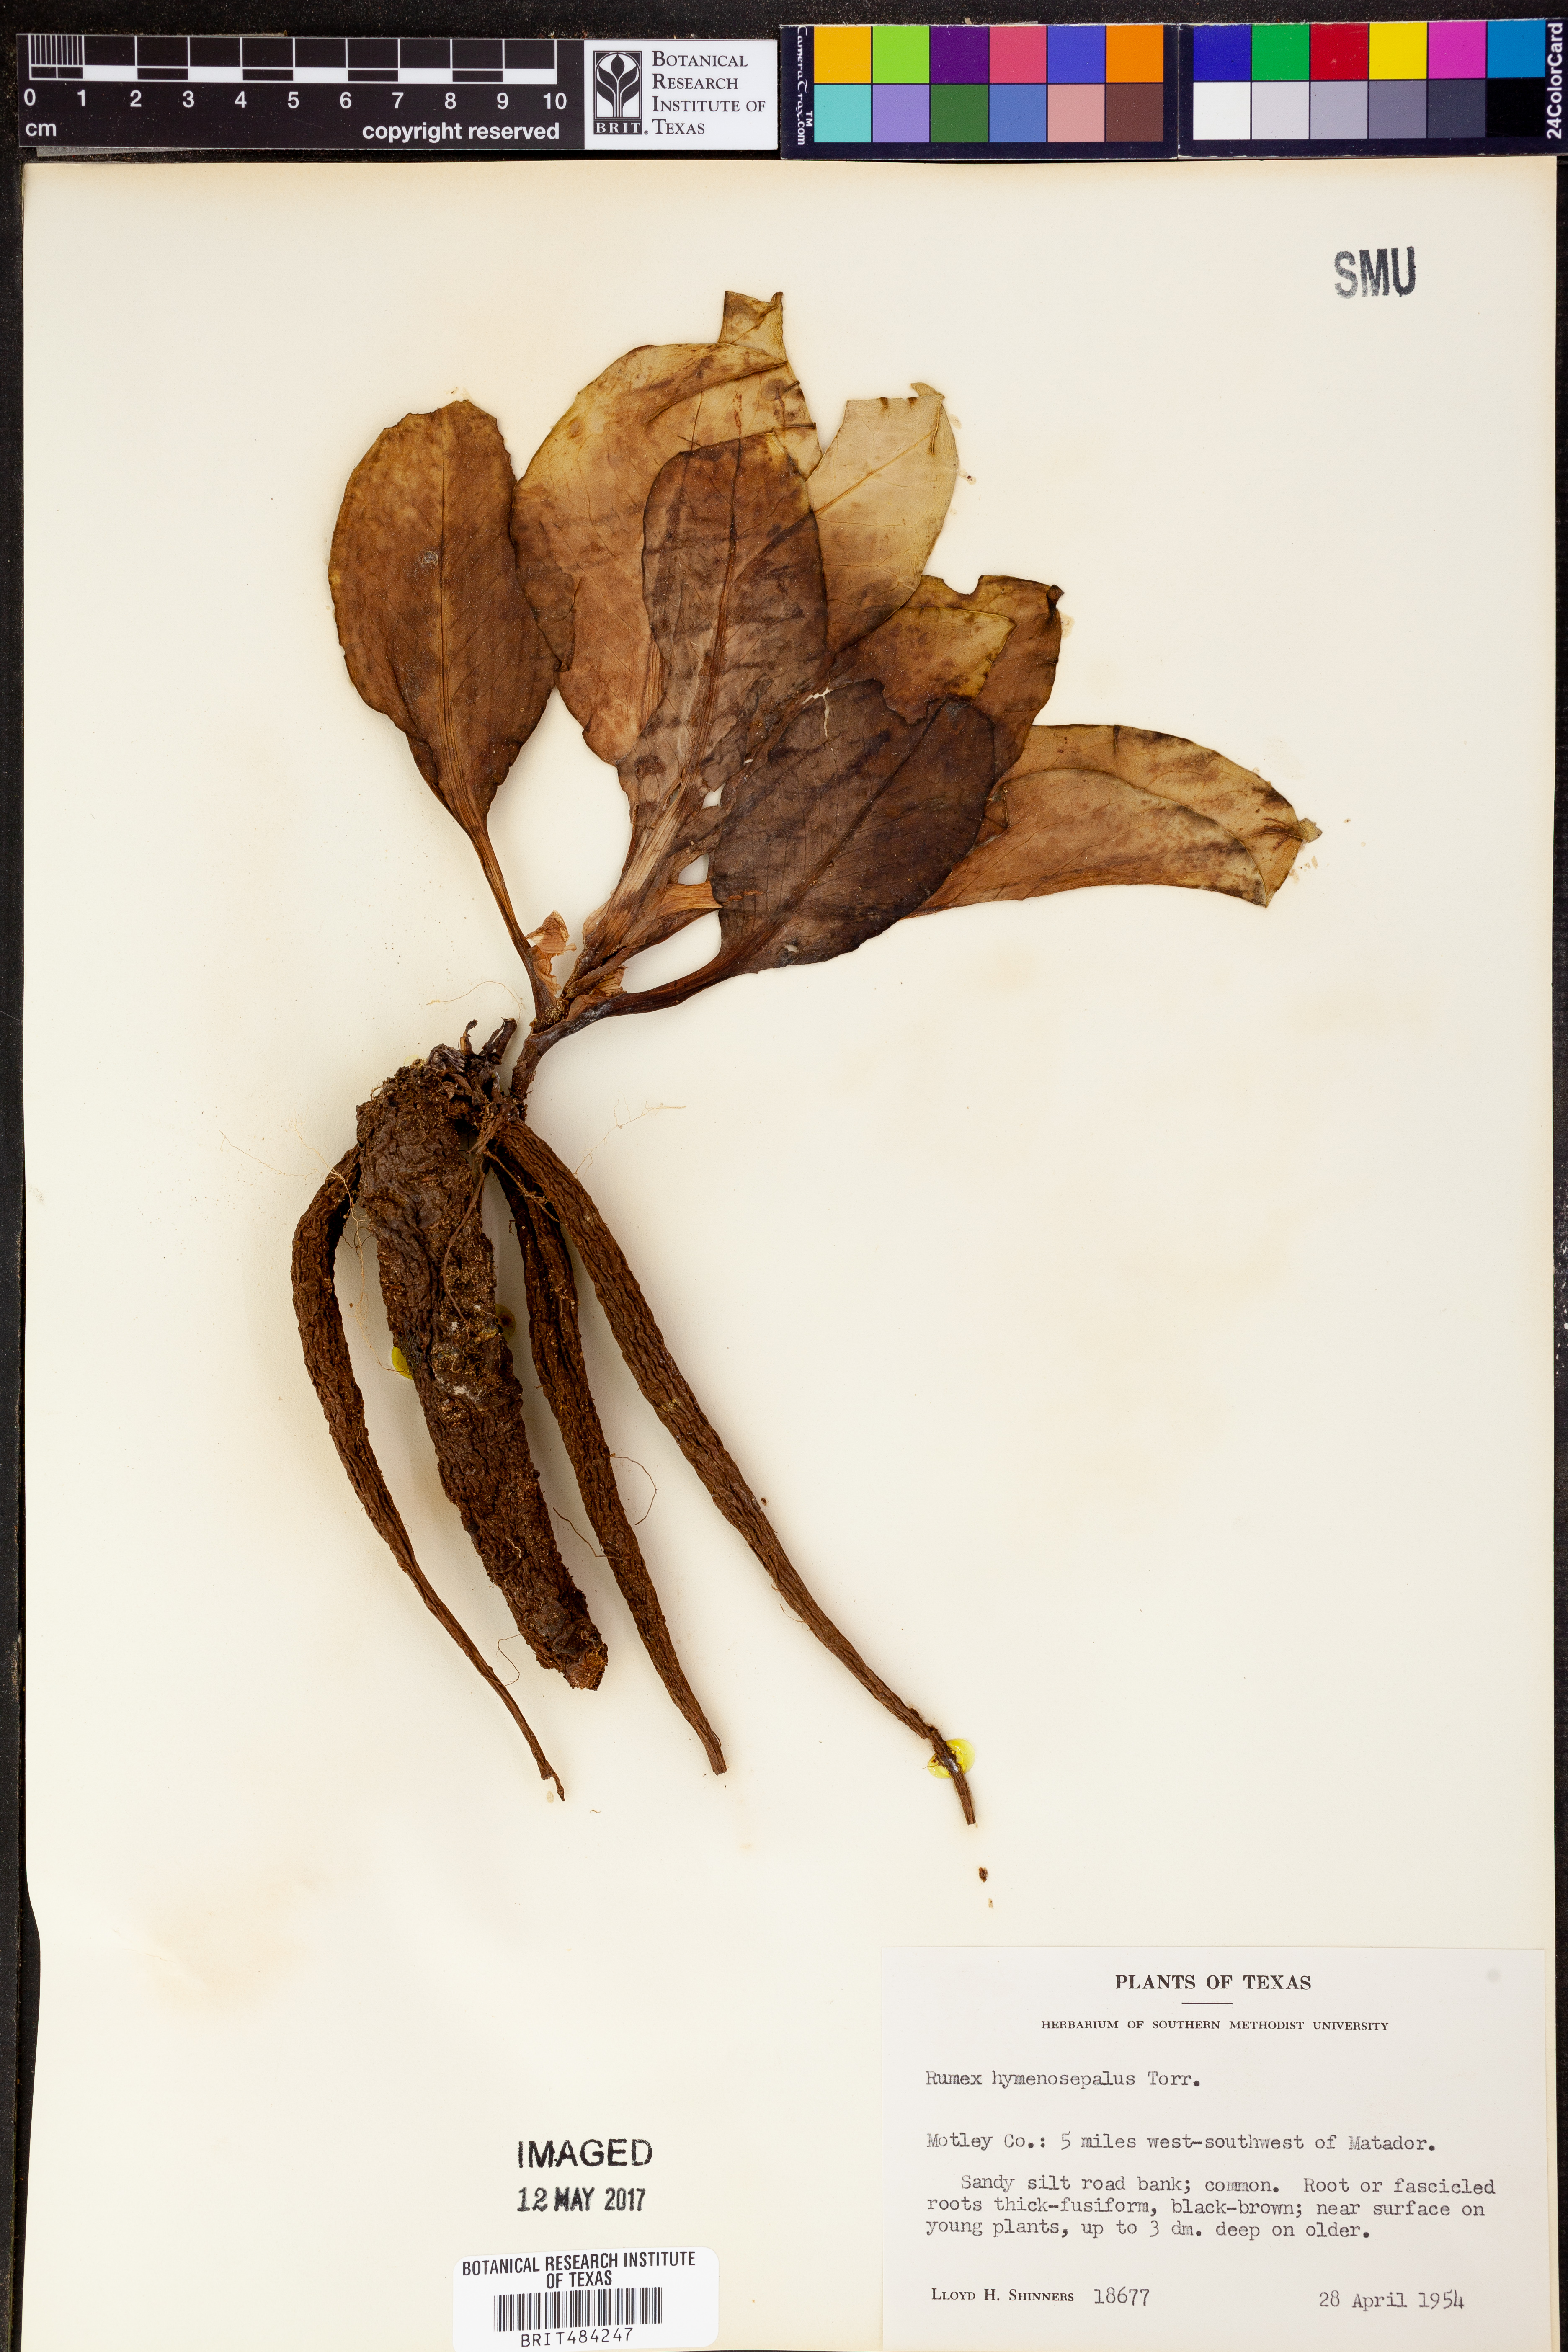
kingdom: Plantae
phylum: Tracheophyta
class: Magnoliopsida
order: Caryophyllales
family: Polygonaceae
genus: Rumex
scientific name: Rumex hymenosepalus
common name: Ganagra
